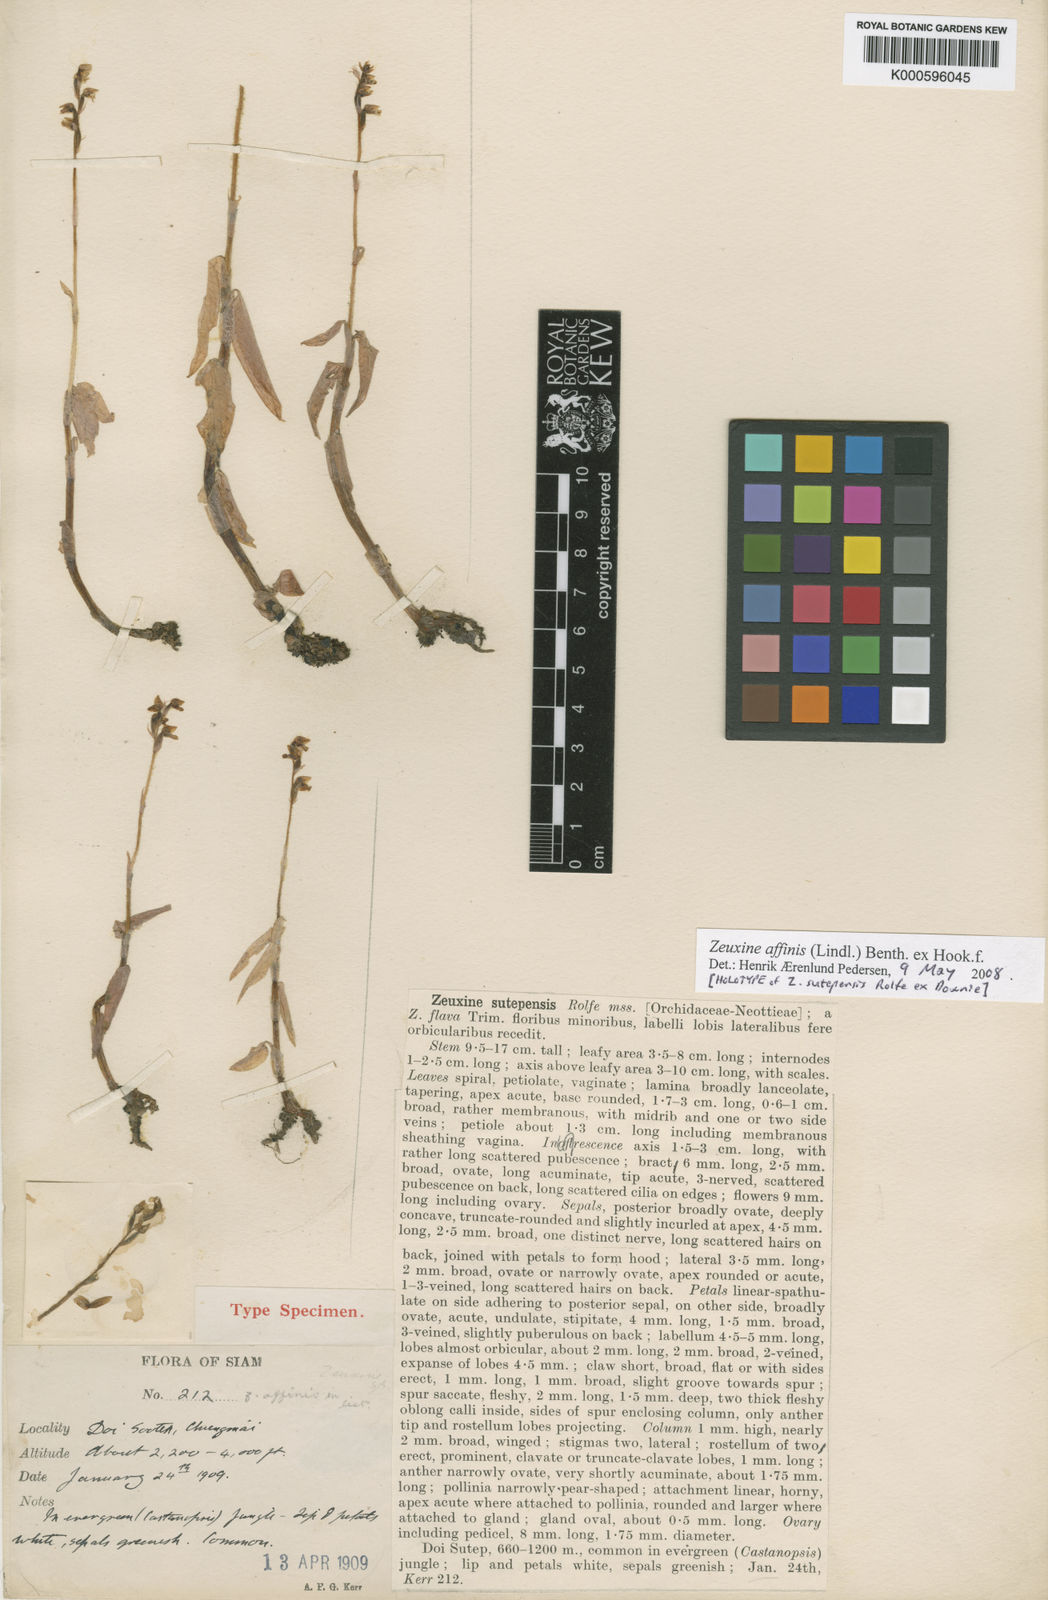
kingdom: Plantae
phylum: Tracheophyta
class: Liliopsida
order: Asparagales
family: Orchidaceae
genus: Zeuxine
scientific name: Zeuxine affinis
